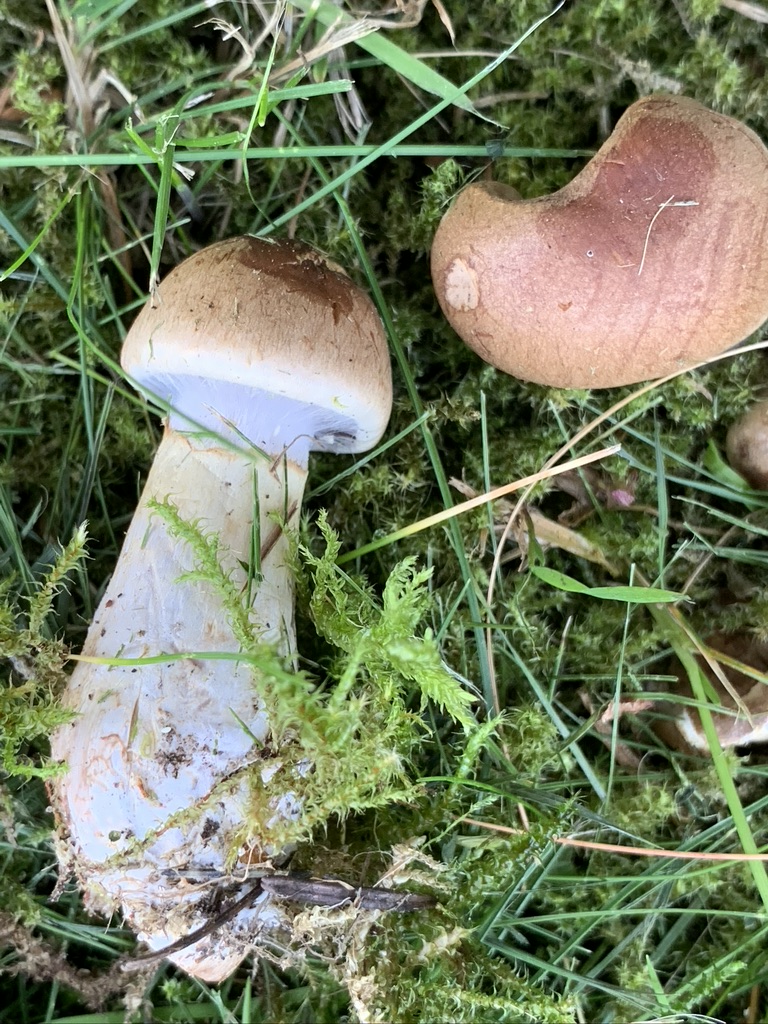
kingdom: Fungi
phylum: Basidiomycota
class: Agaricomycetes
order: Agaricales
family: Cortinariaceae
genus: Cortinarius
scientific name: Cortinarius caninus
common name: gran-slørhat
